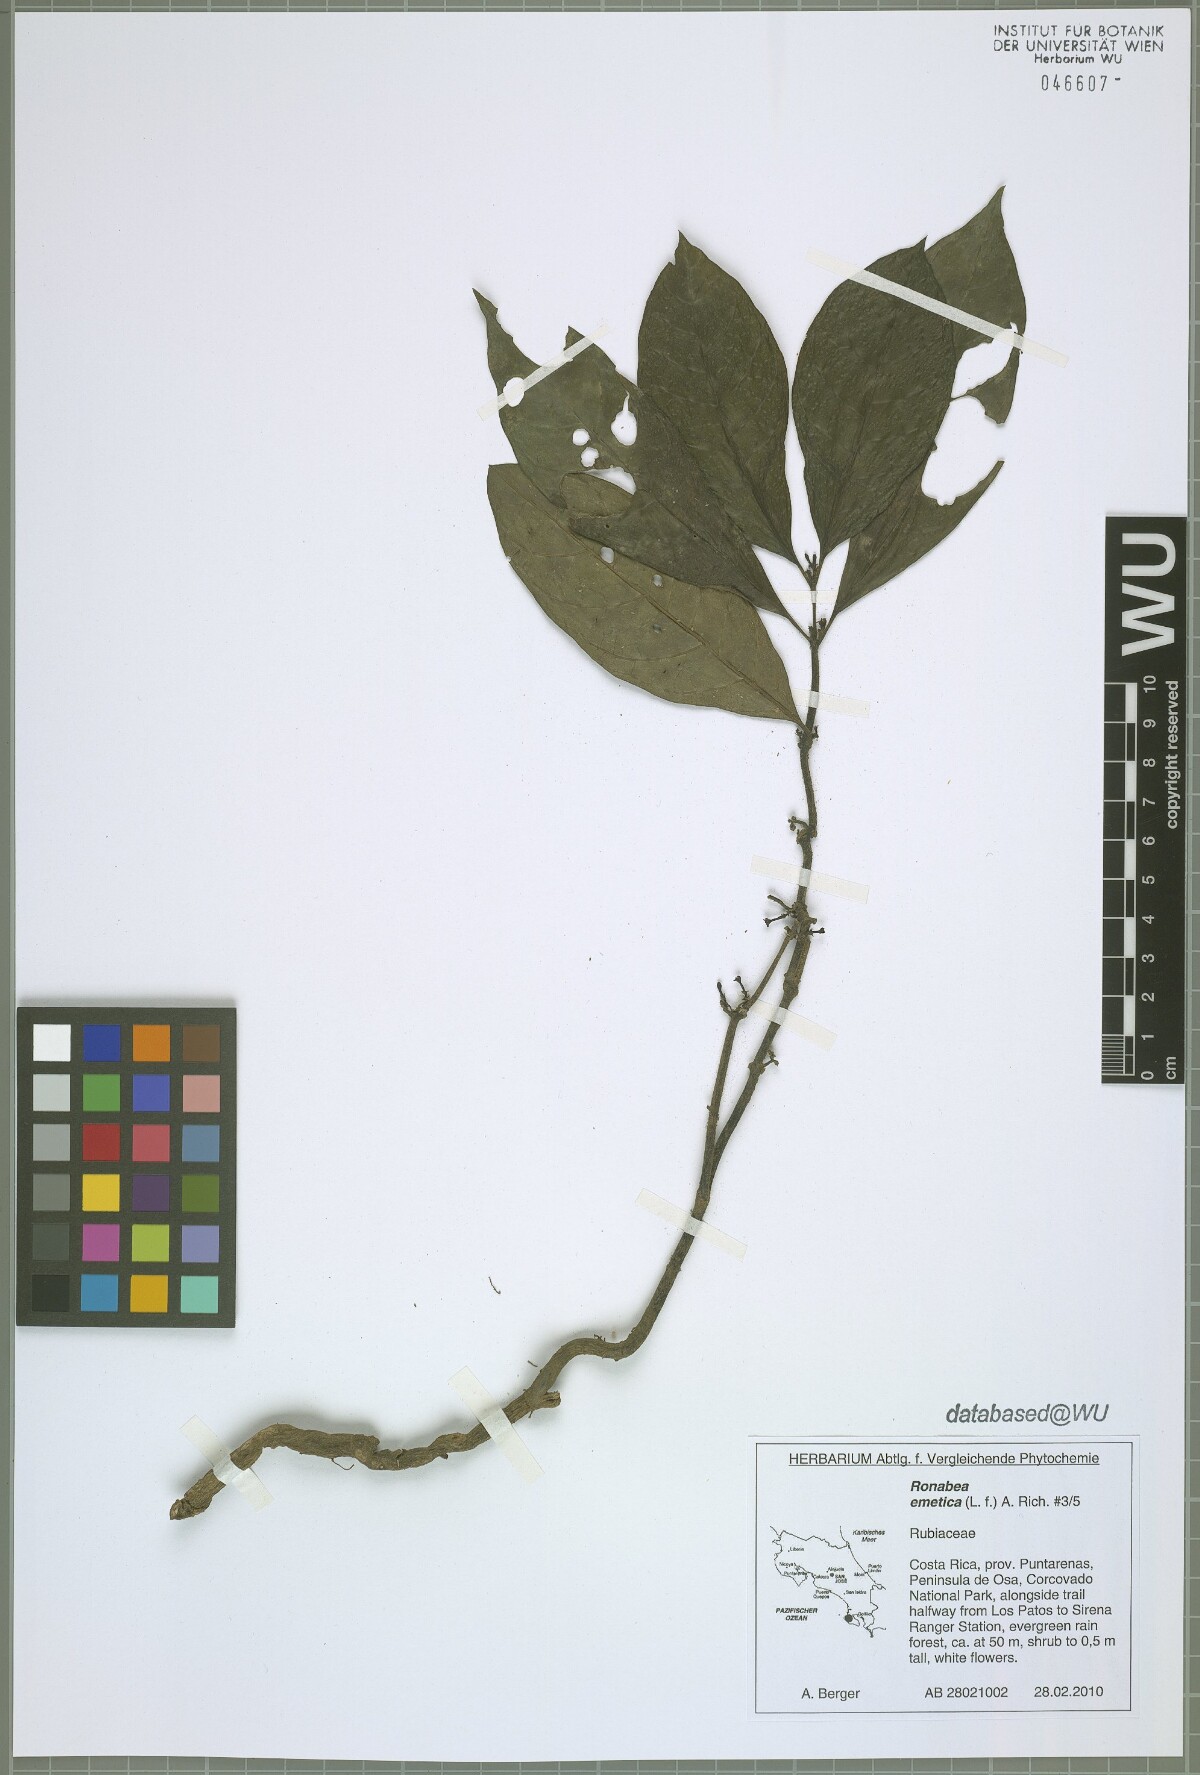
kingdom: Plantae
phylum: Tracheophyta
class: Magnoliopsida
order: Gentianales
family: Rubiaceae
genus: Ronabea
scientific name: Ronabea emetica
